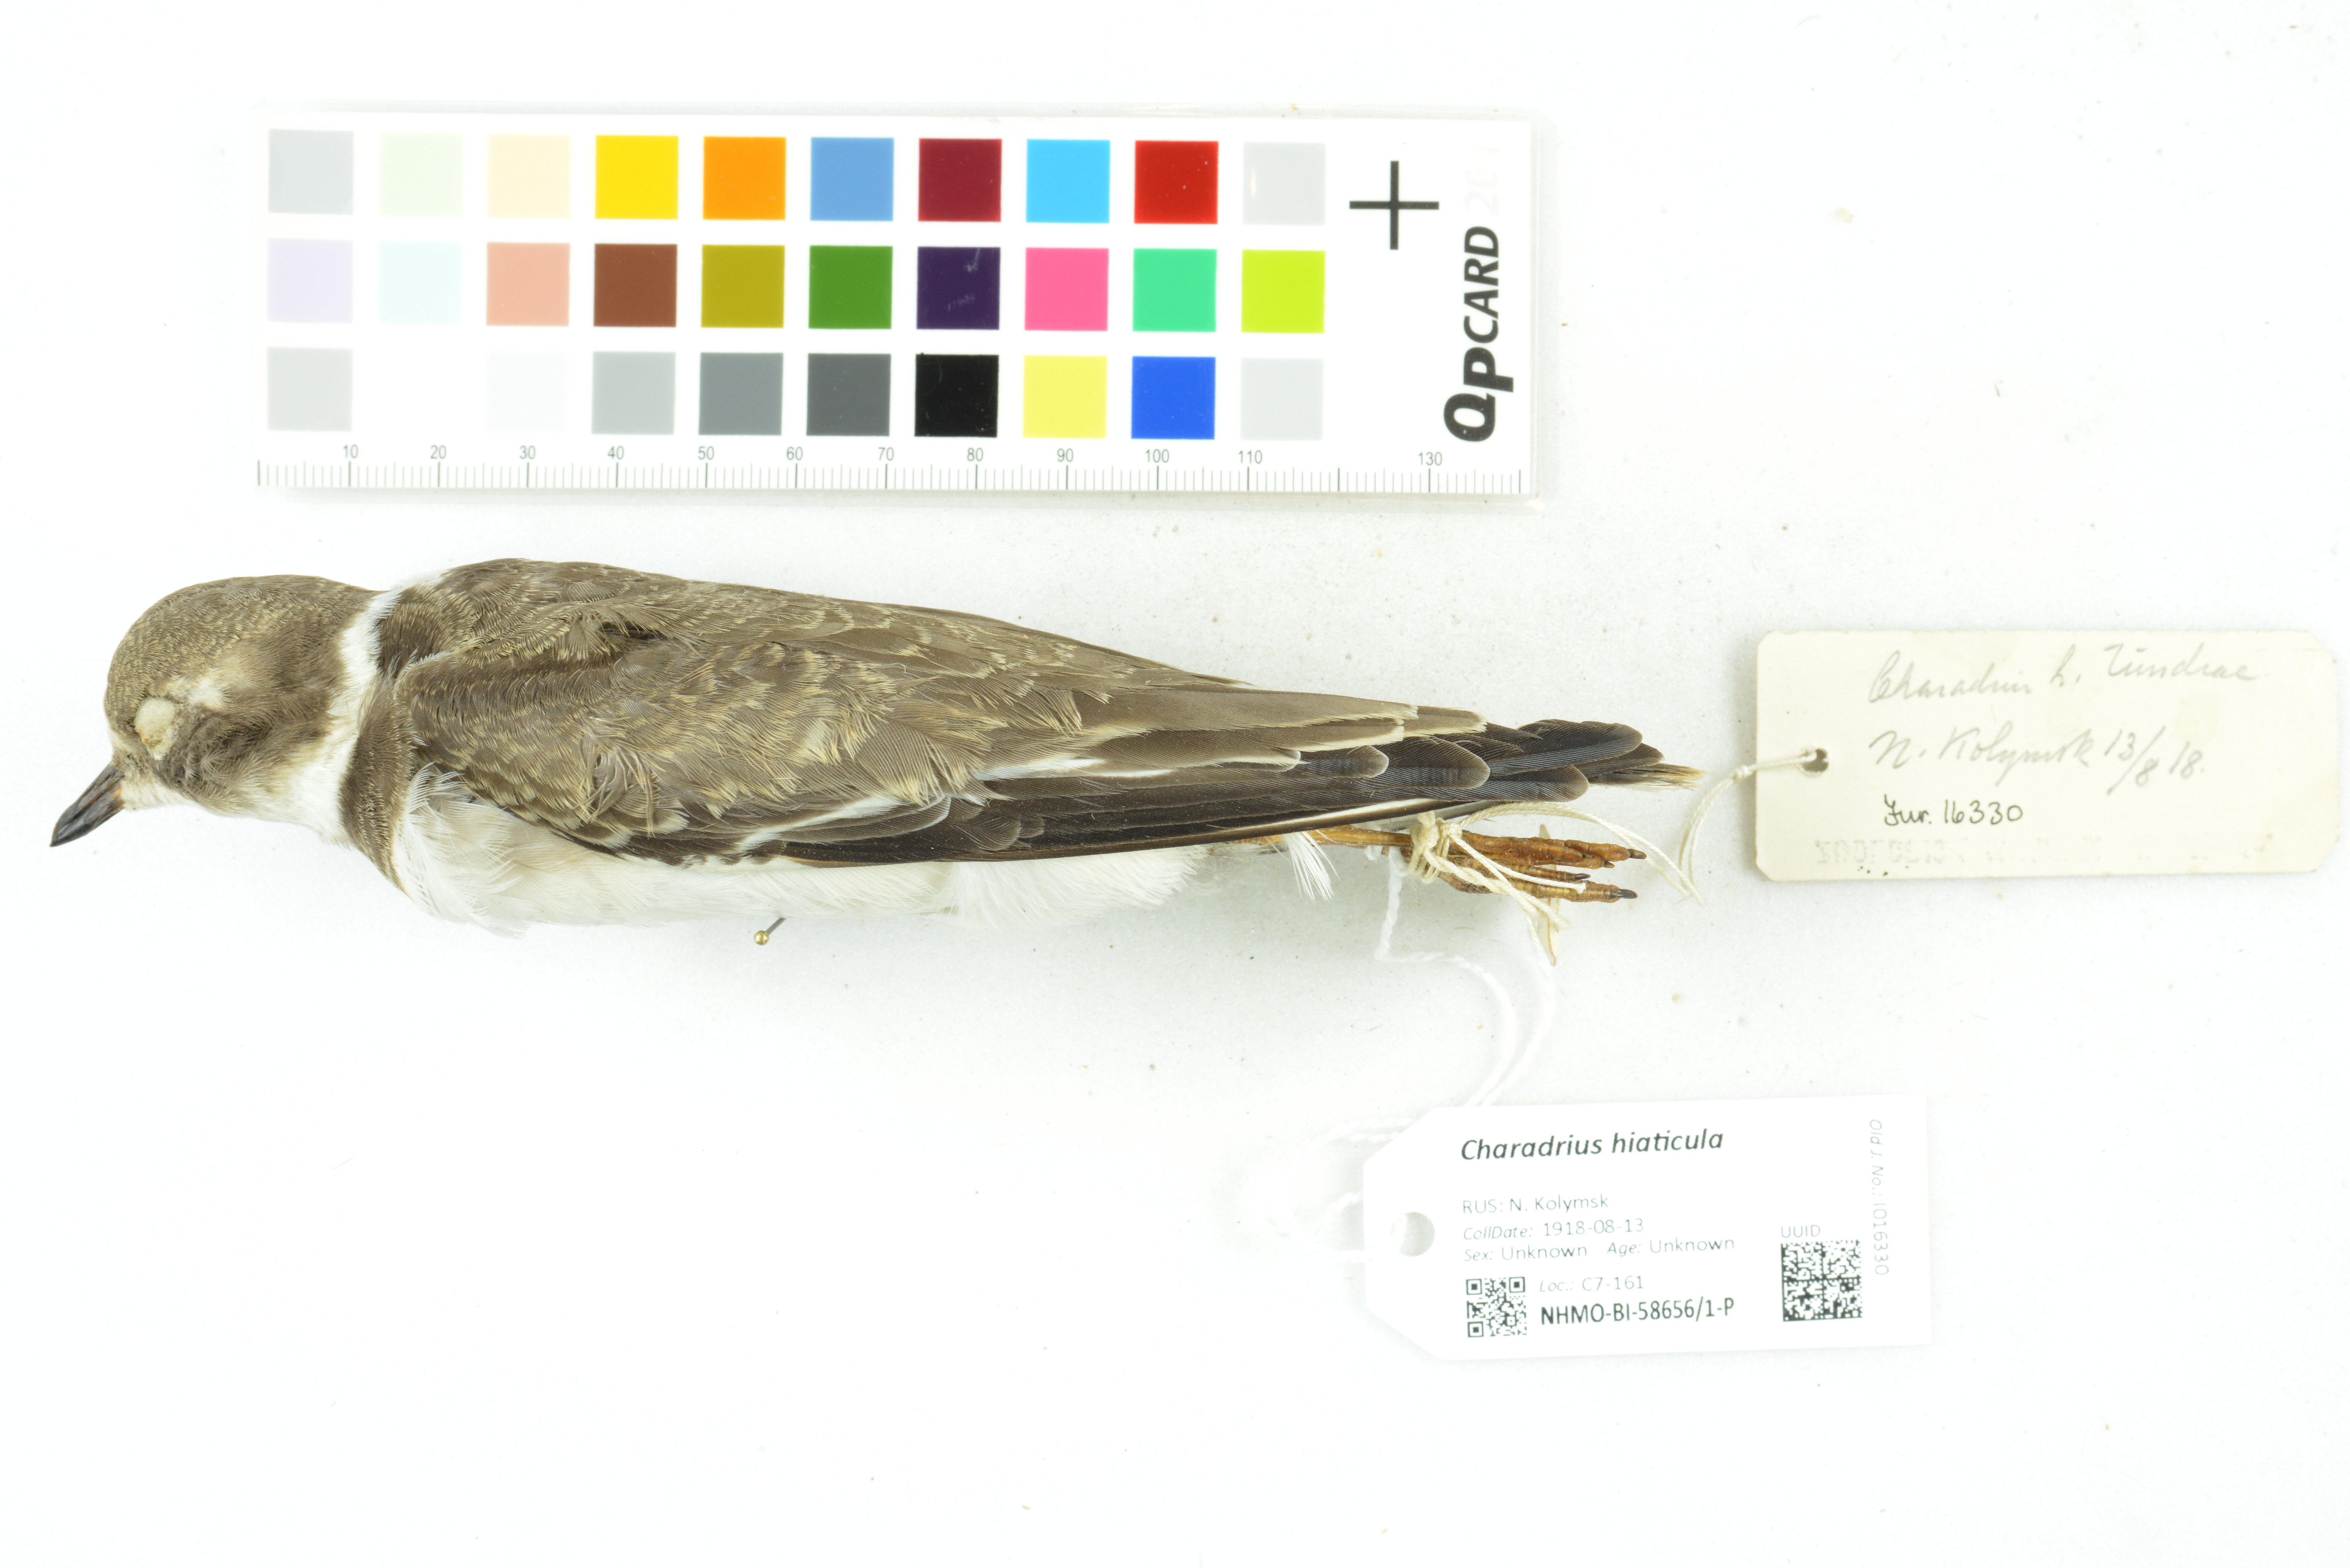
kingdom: Animalia
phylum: Chordata
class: Aves
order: Charadriiformes
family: Charadriidae
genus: Charadrius
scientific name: Charadrius hiaticula
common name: Common ringed plover
